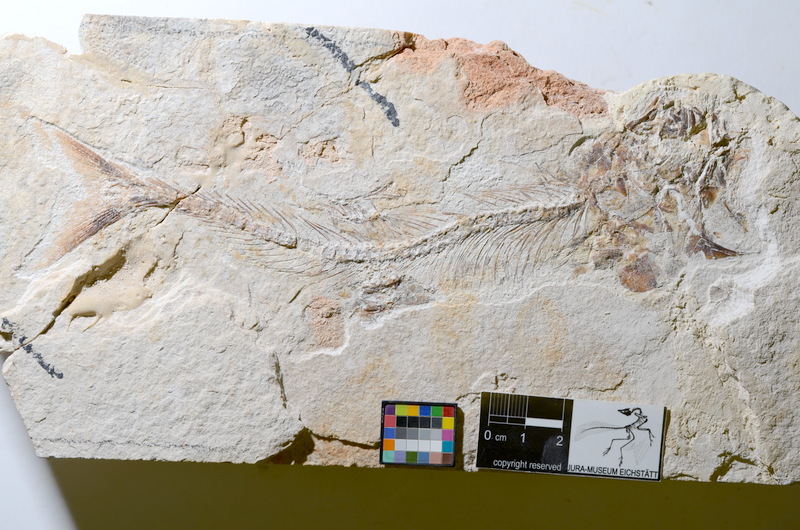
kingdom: Animalia
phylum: Chordata
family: Ascalaboidae
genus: Tharsis
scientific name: Tharsis dubius
